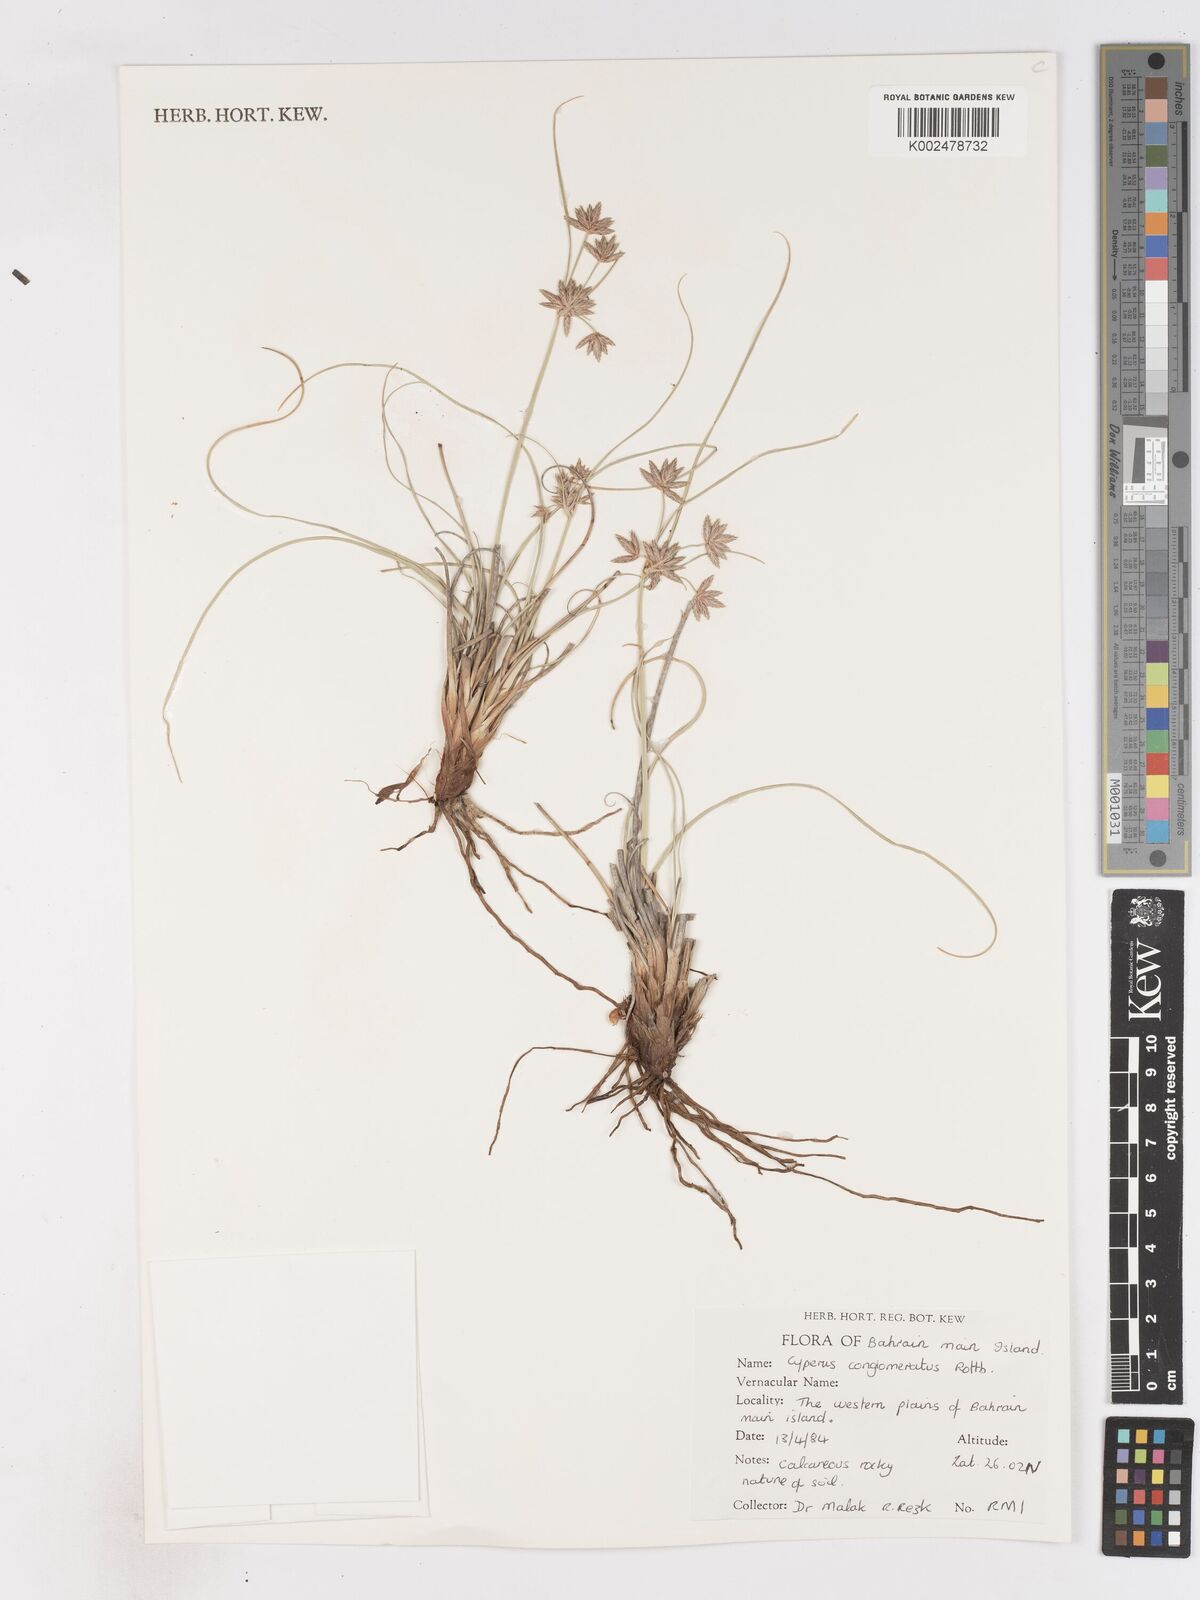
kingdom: Plantae
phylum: Tracheophyta
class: Liliopsida
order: Poales
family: Cyperaceae
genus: Cyperus
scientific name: Cyperus conglomeratus
